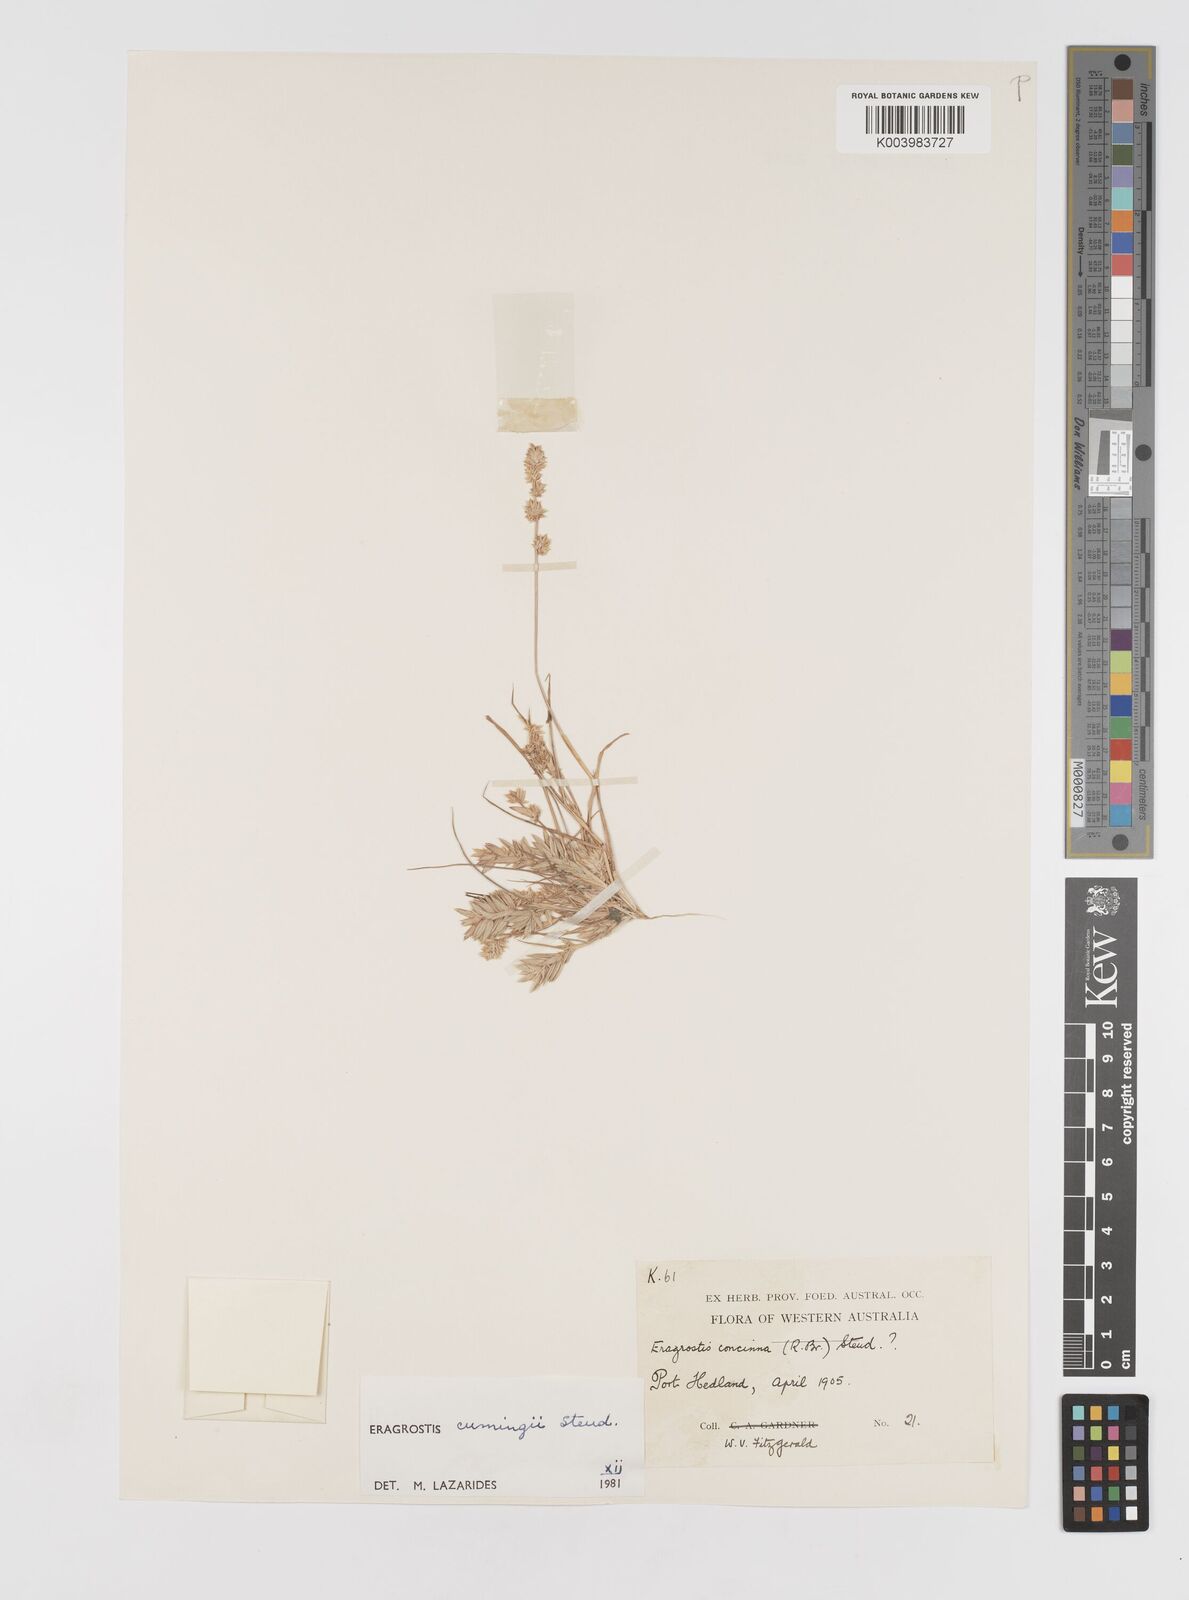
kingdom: Plantae
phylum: Tracheophyta
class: Liliopsida
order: Poales
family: Poaceae
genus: Eragrostis
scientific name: Eragrostis cumingii
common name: Cuming's lovegrass
